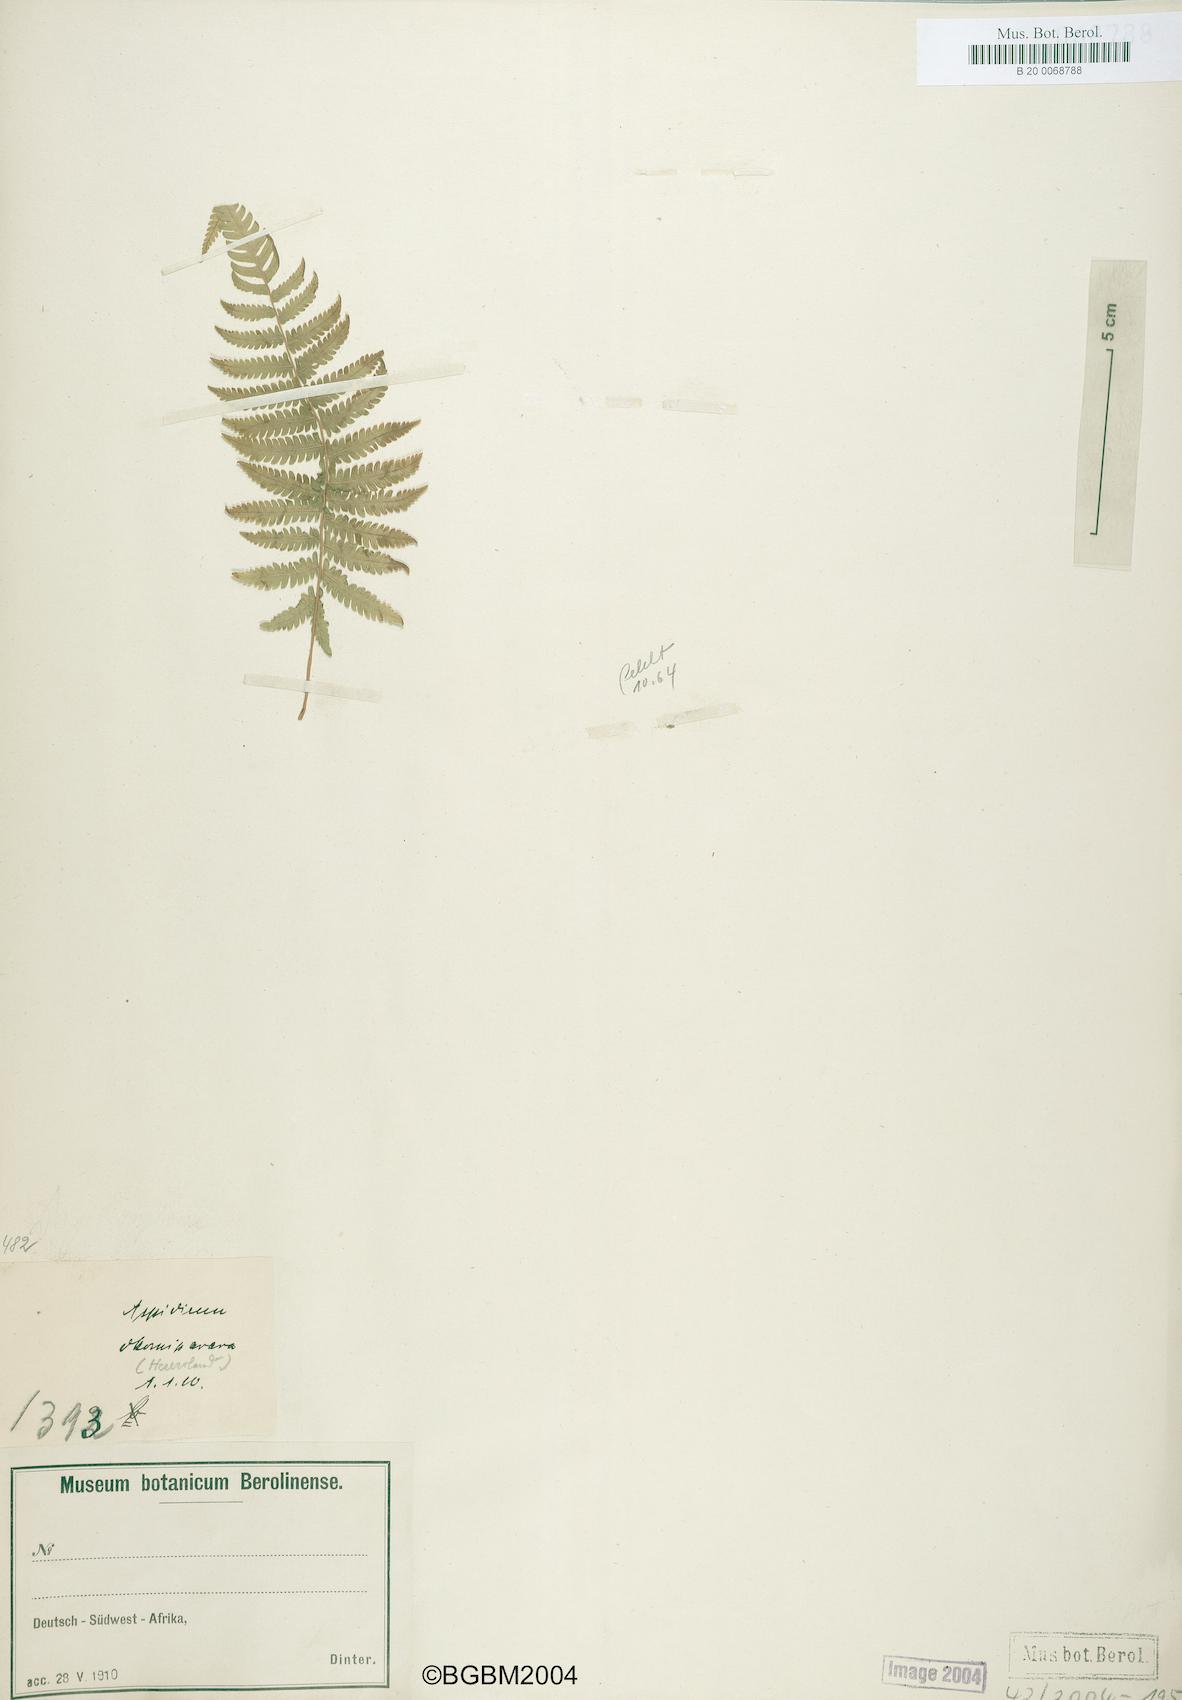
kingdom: Plantae
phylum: Tracheophyta
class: Polypodiopsida
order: Polypodiales
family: Thelypteridaceae
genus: Thelypteris
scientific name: Thelypteris palustris
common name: Marsh fern
